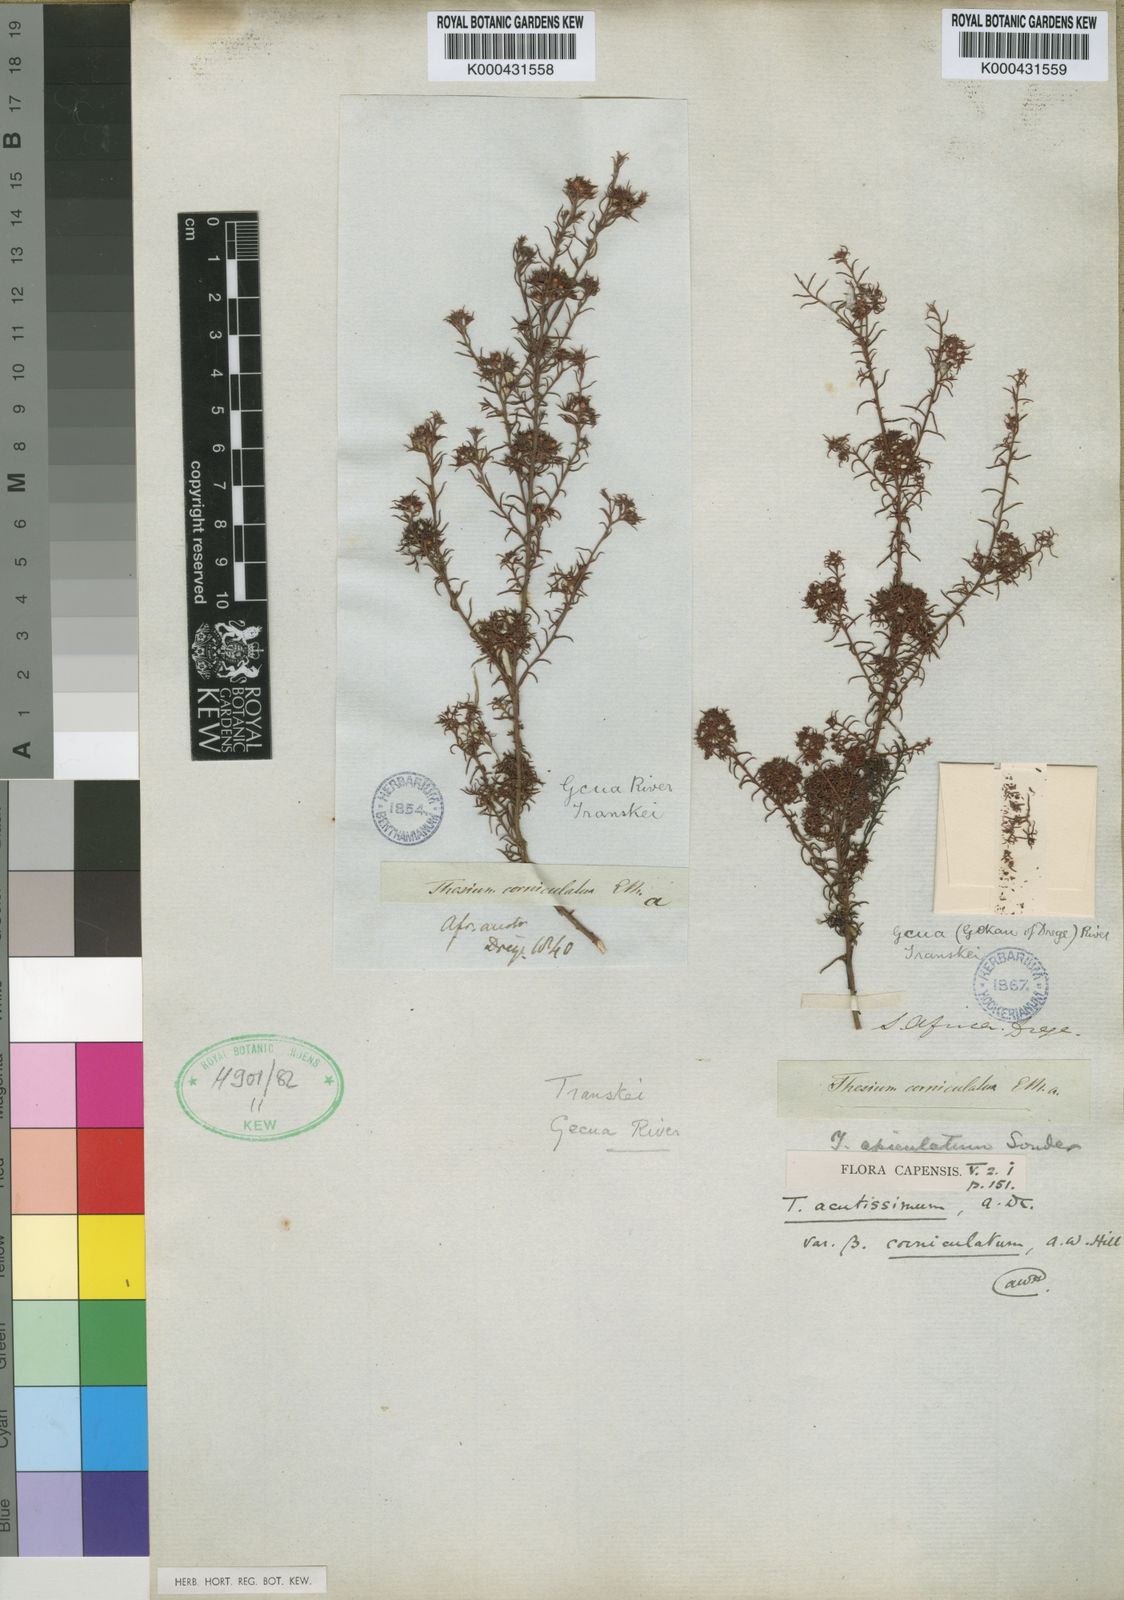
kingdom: Plantae
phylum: Tracheophyta
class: Magnoliopsida
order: Santalales
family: Thesiaceae
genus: Thesium
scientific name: Thesium acutissimum
